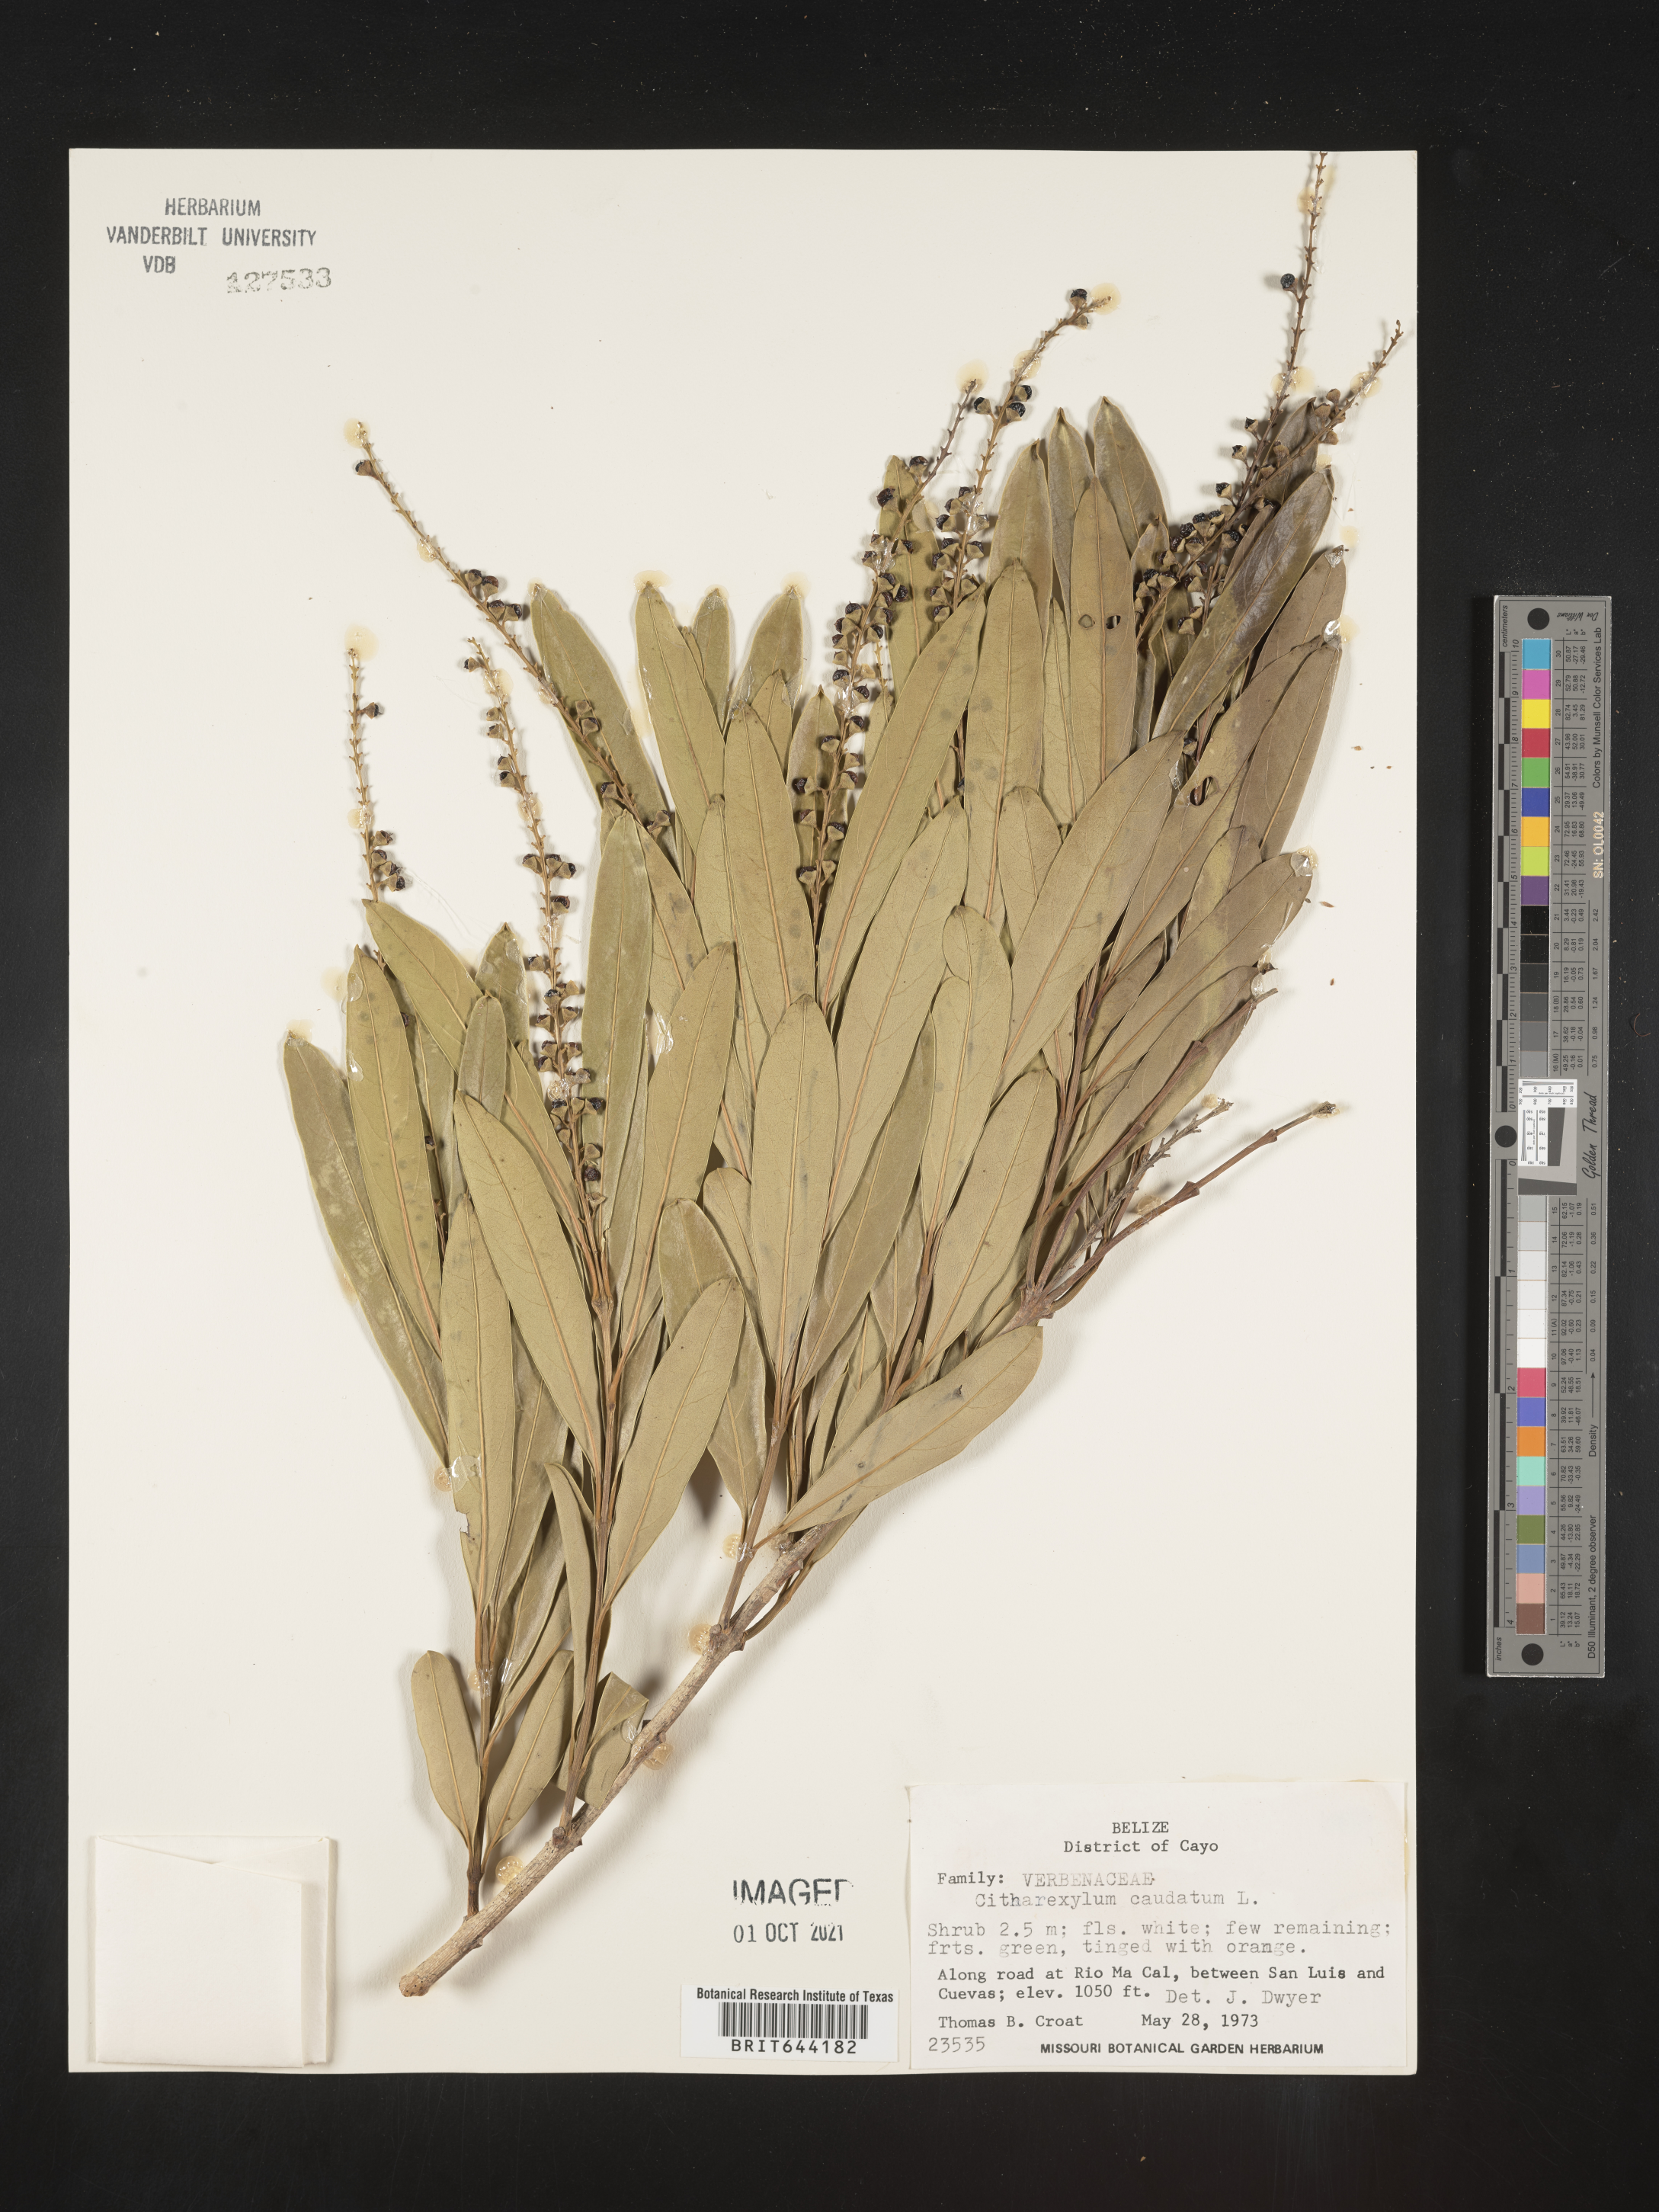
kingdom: Plantae
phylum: Tracheophyta
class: Magnoliopsida
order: Lamiales
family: Verbenaceae
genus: Citharexylum
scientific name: Citharexylum
